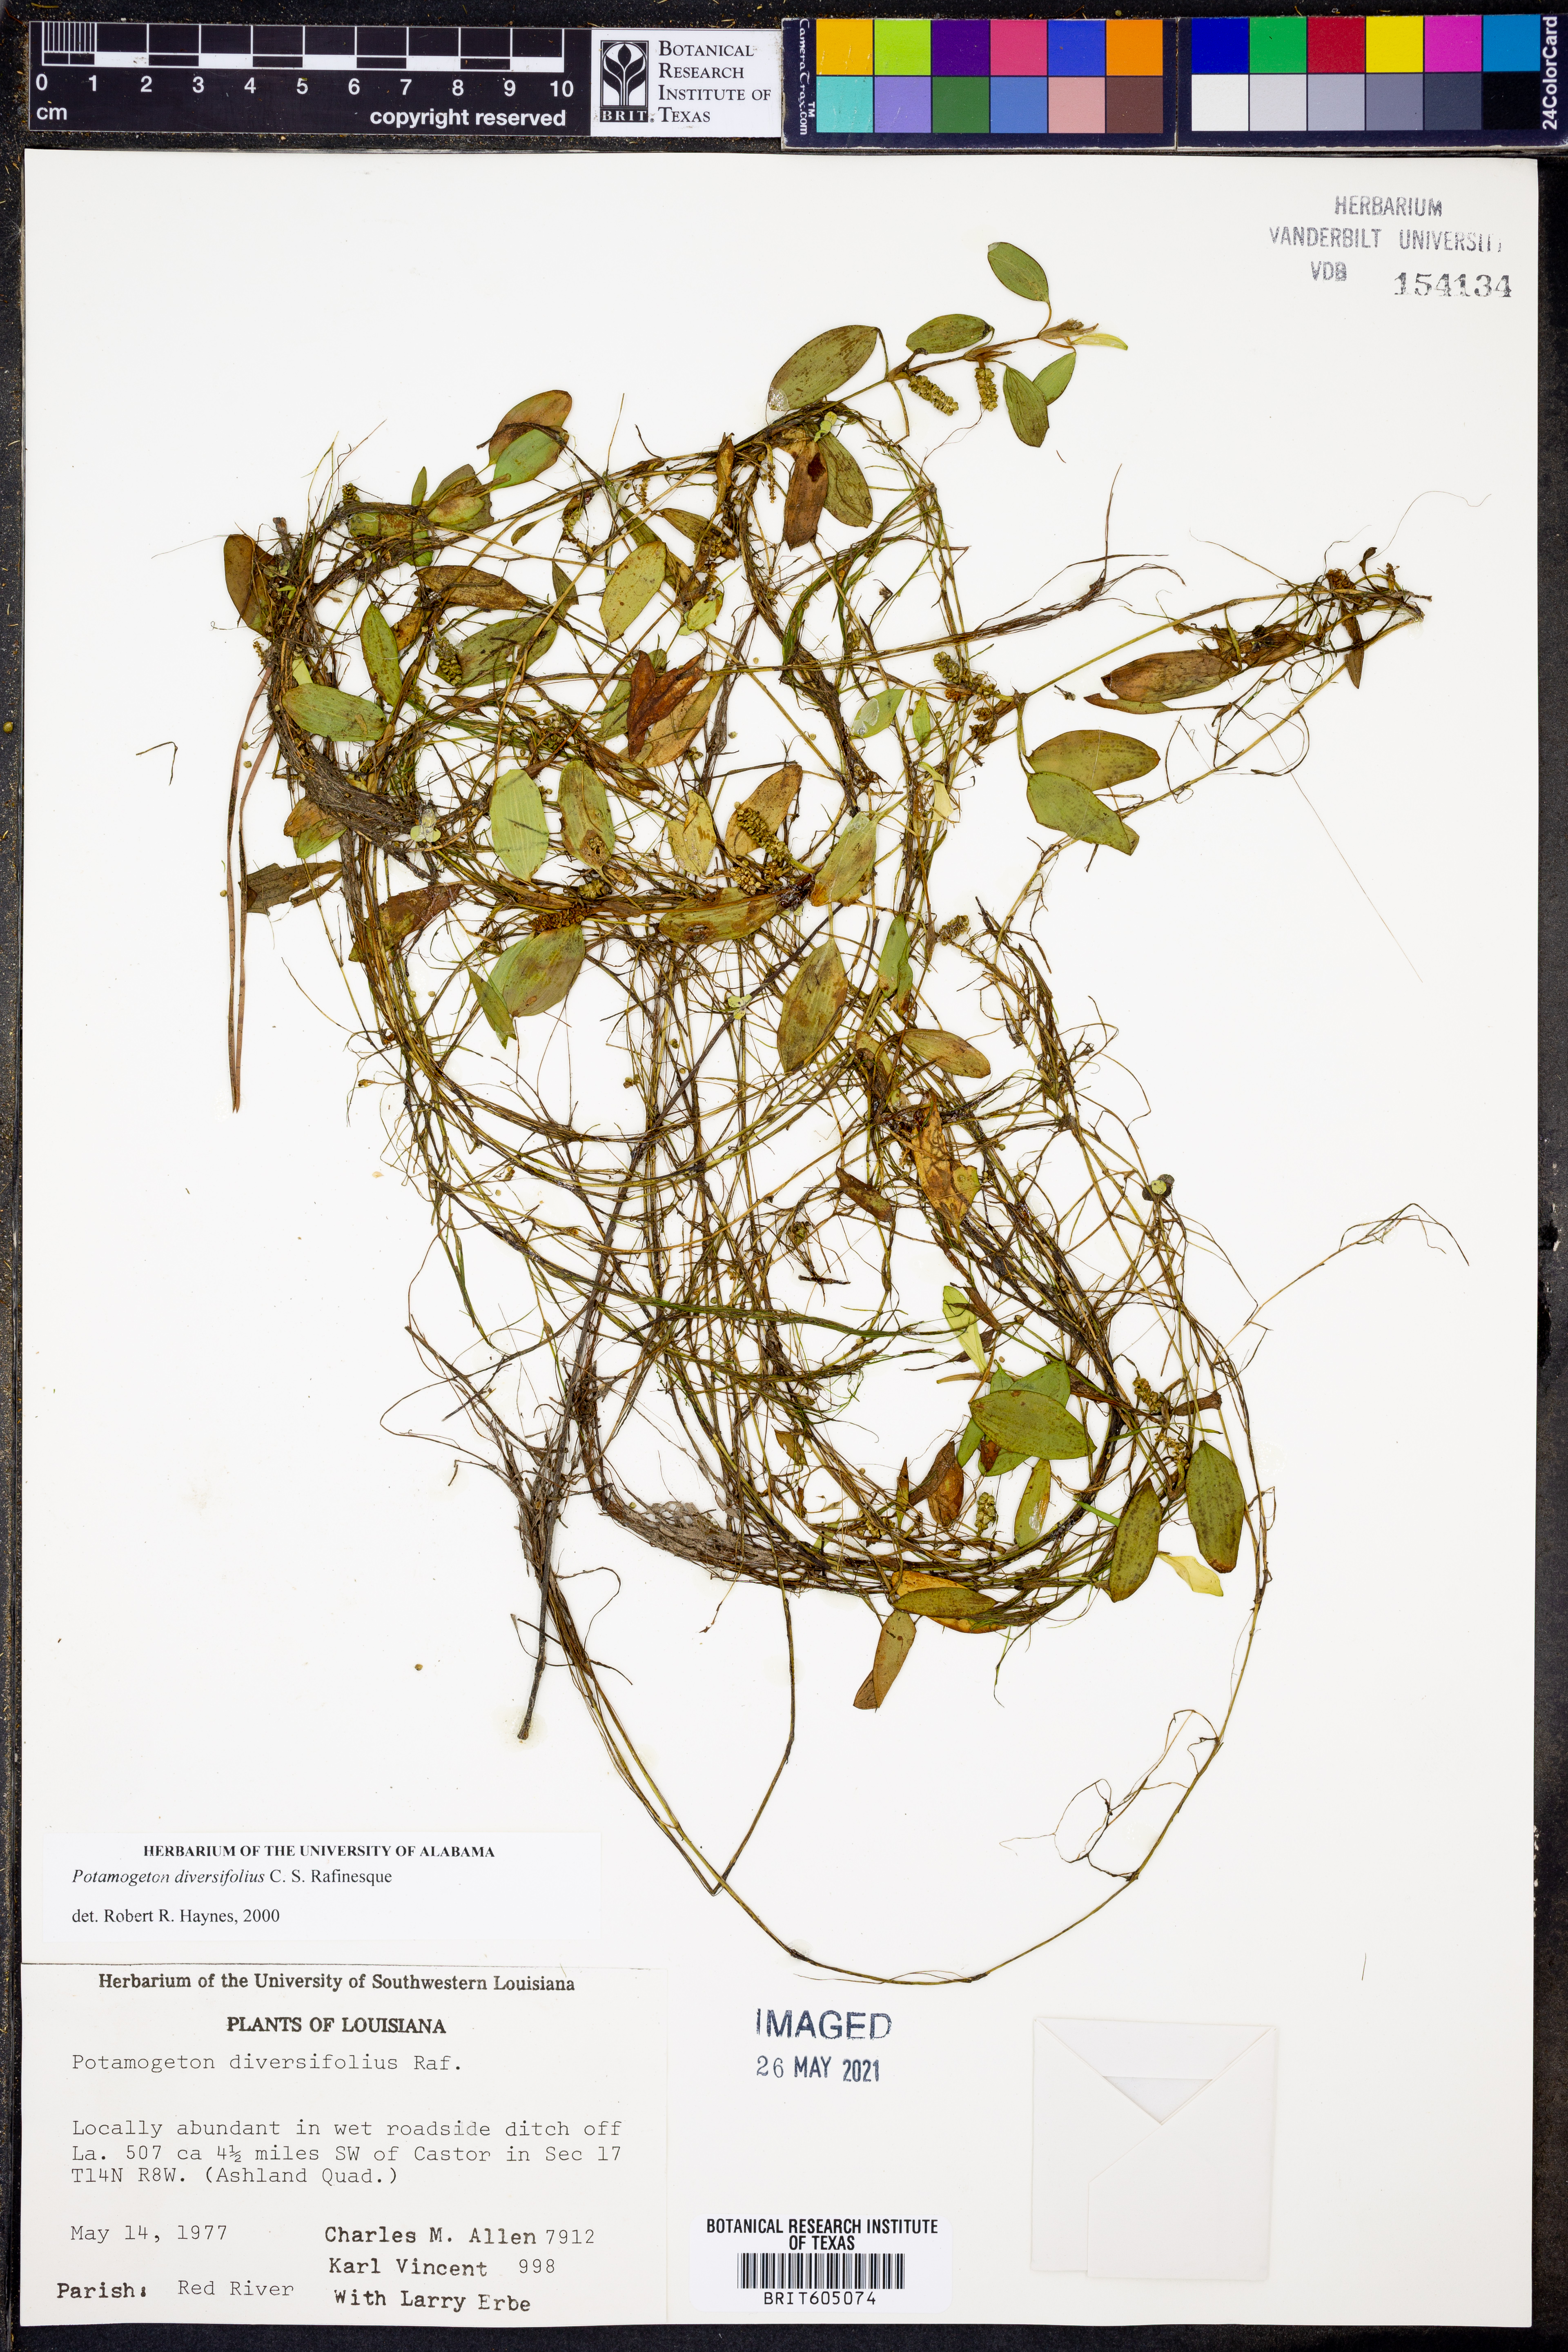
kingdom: Plantae
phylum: Tracheophyta
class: Liliopsida
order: Alismatales
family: Potamogetonaceae
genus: Potamogeton
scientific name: Potamogeton diversifolius
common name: Water-thread pondweed
